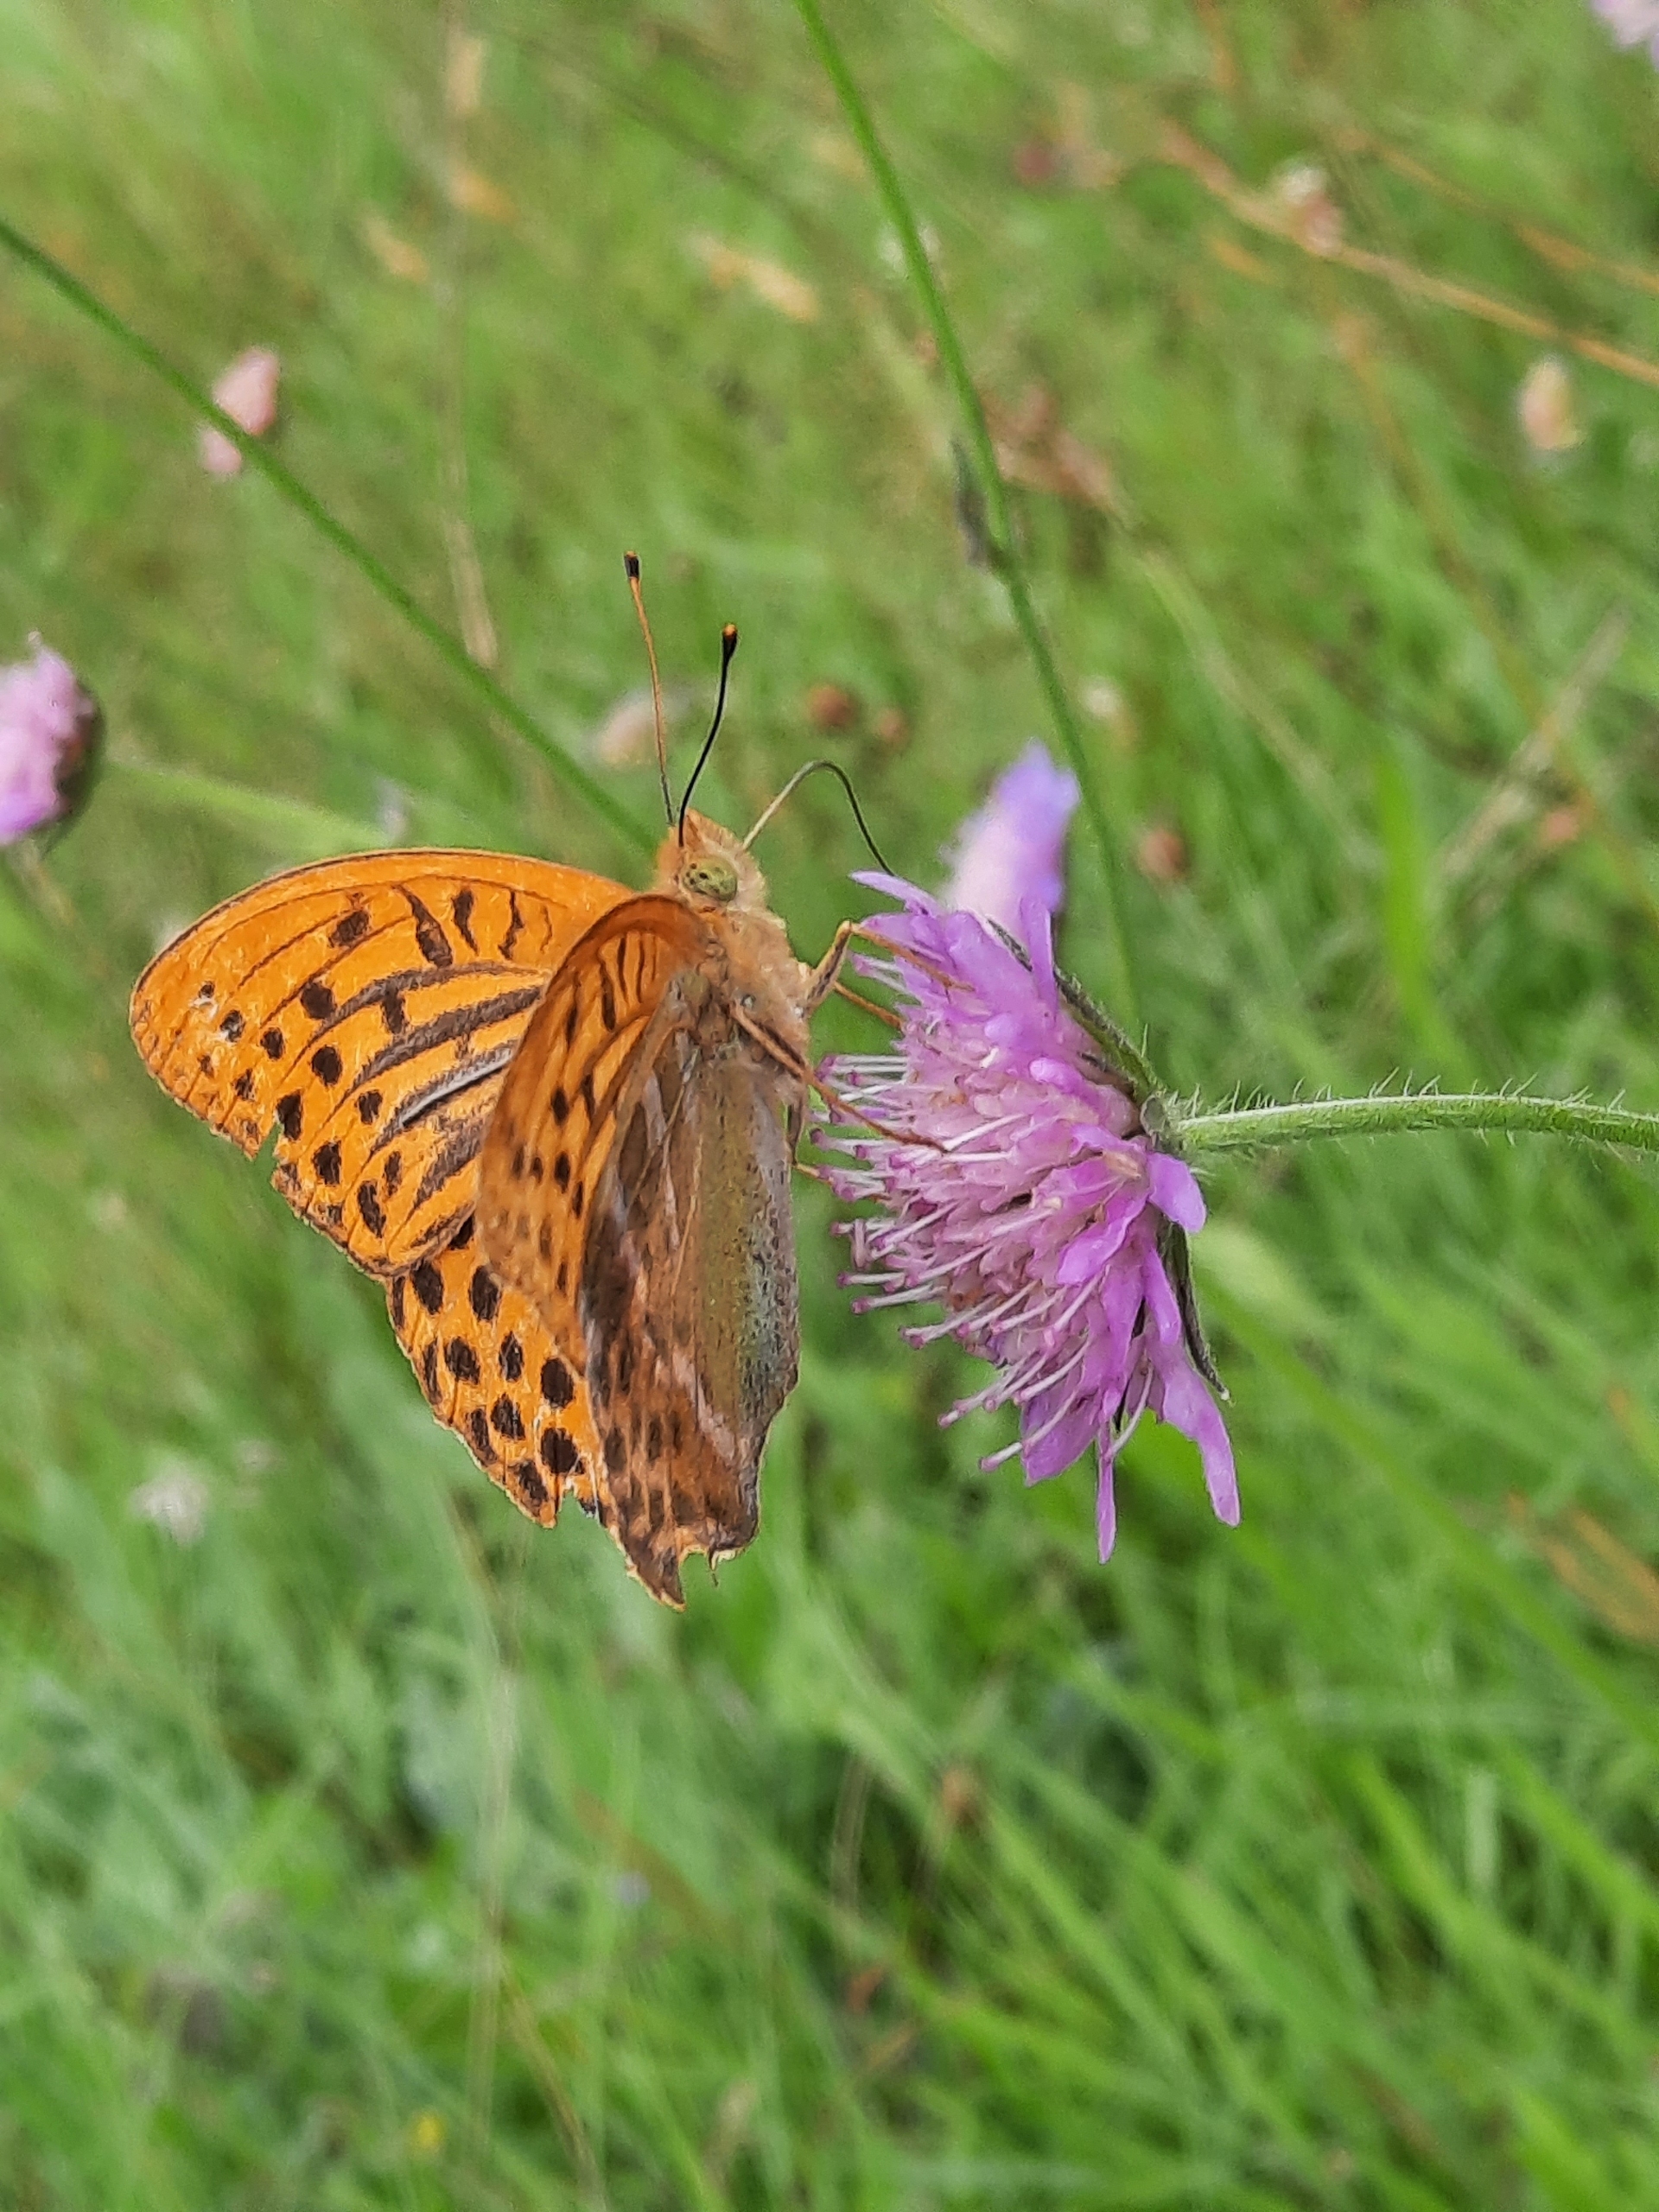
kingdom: Animalia
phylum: Arthropoda
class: Insecta
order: Lepidoptera
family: Nymphalidae
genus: Argynnis
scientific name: Argynnis paphia
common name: Kejserkåbe
